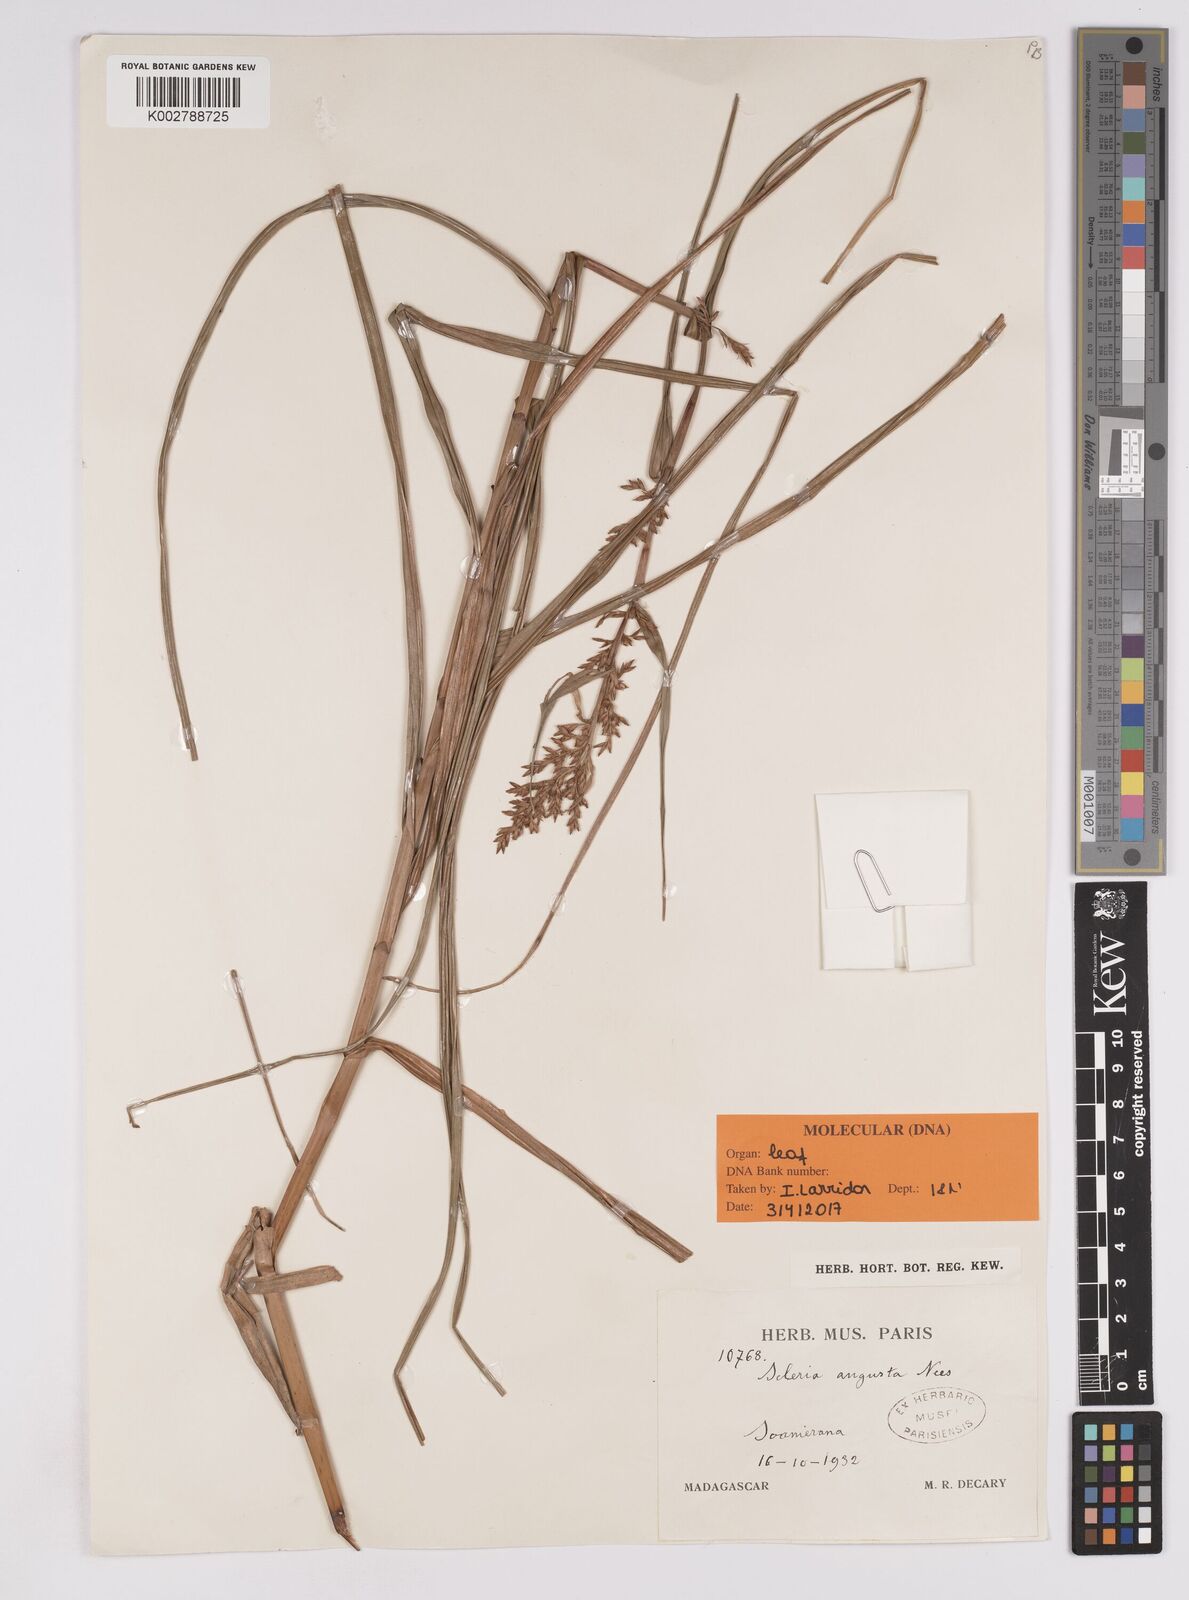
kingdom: Plantae
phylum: Tracheophyta
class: Liliopsida
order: Poales
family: Cyperaceae
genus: Scleria
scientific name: Scleria angusta
